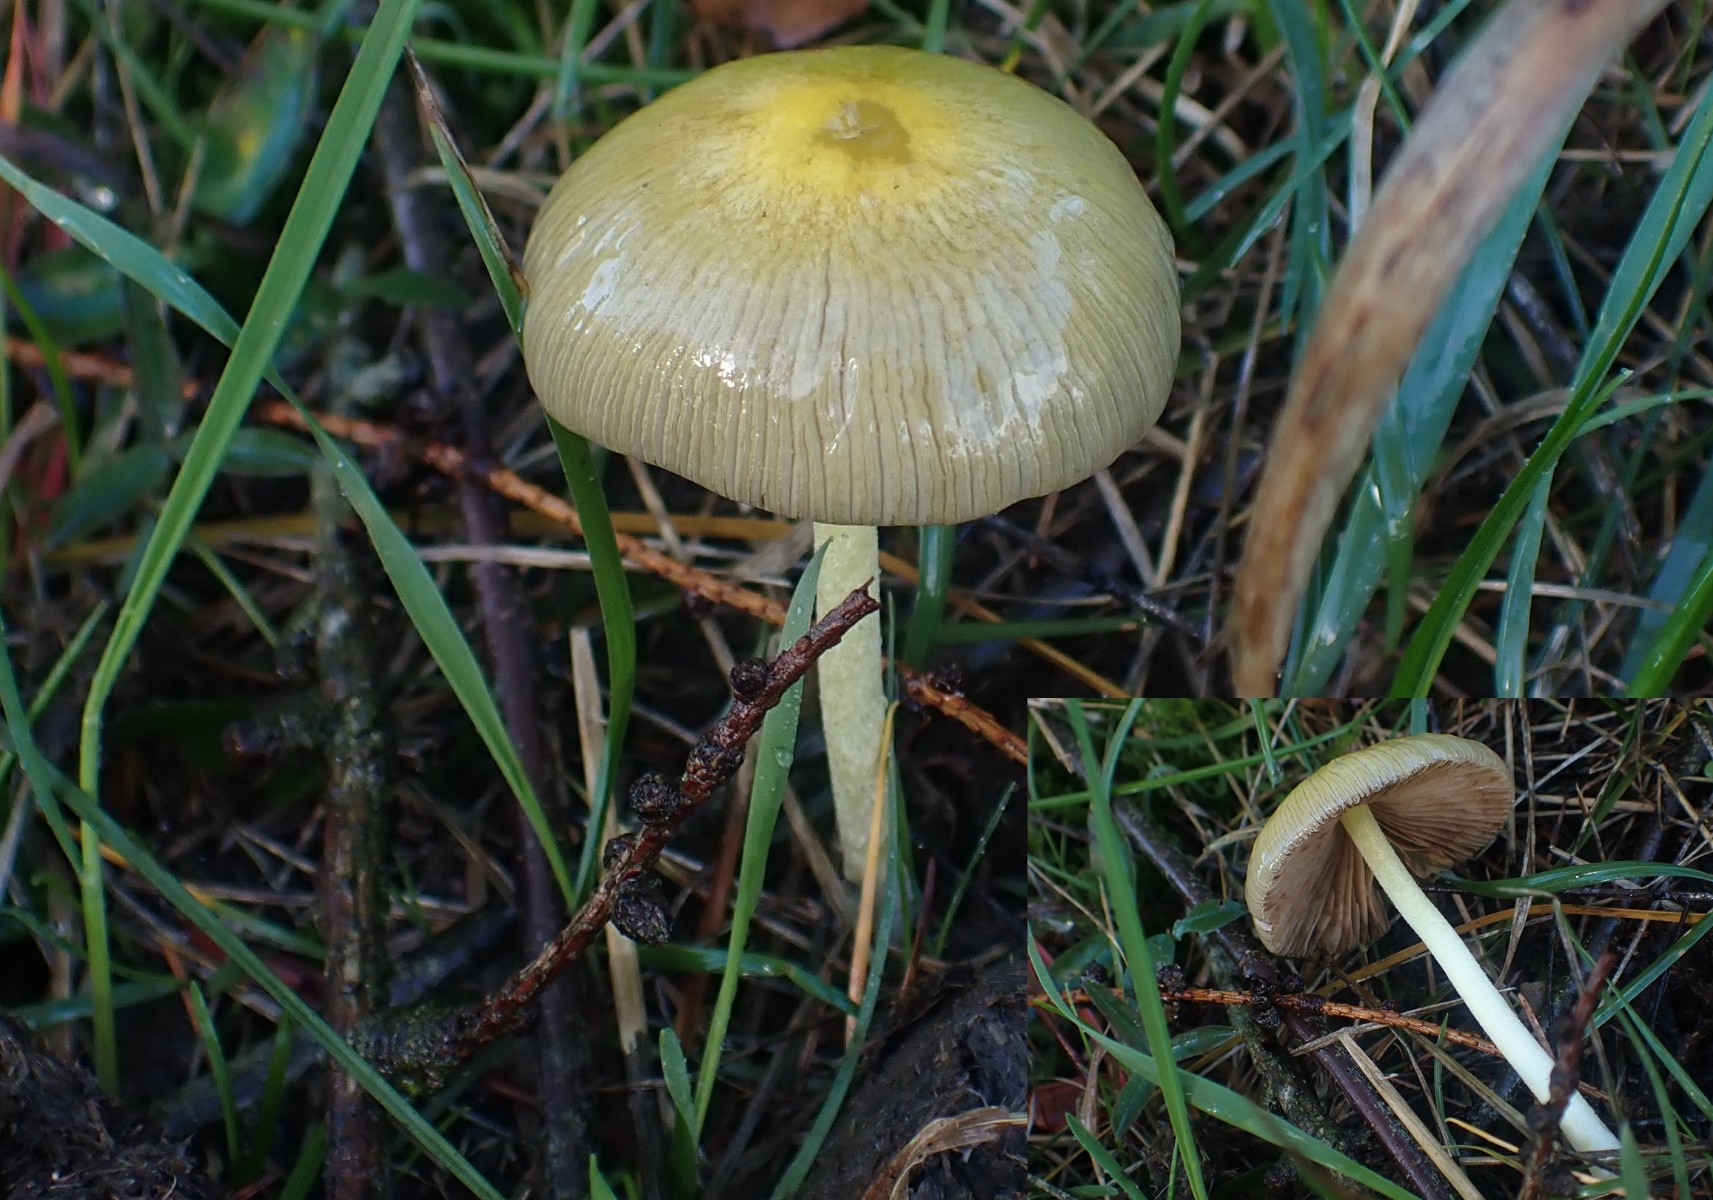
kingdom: Fungi
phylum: Basidiomycota
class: Agaricomycetes
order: Agaricales
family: Bolbitiaceae
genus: Bolbitius
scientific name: Bolbitius titubans
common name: almindelig gulhat
